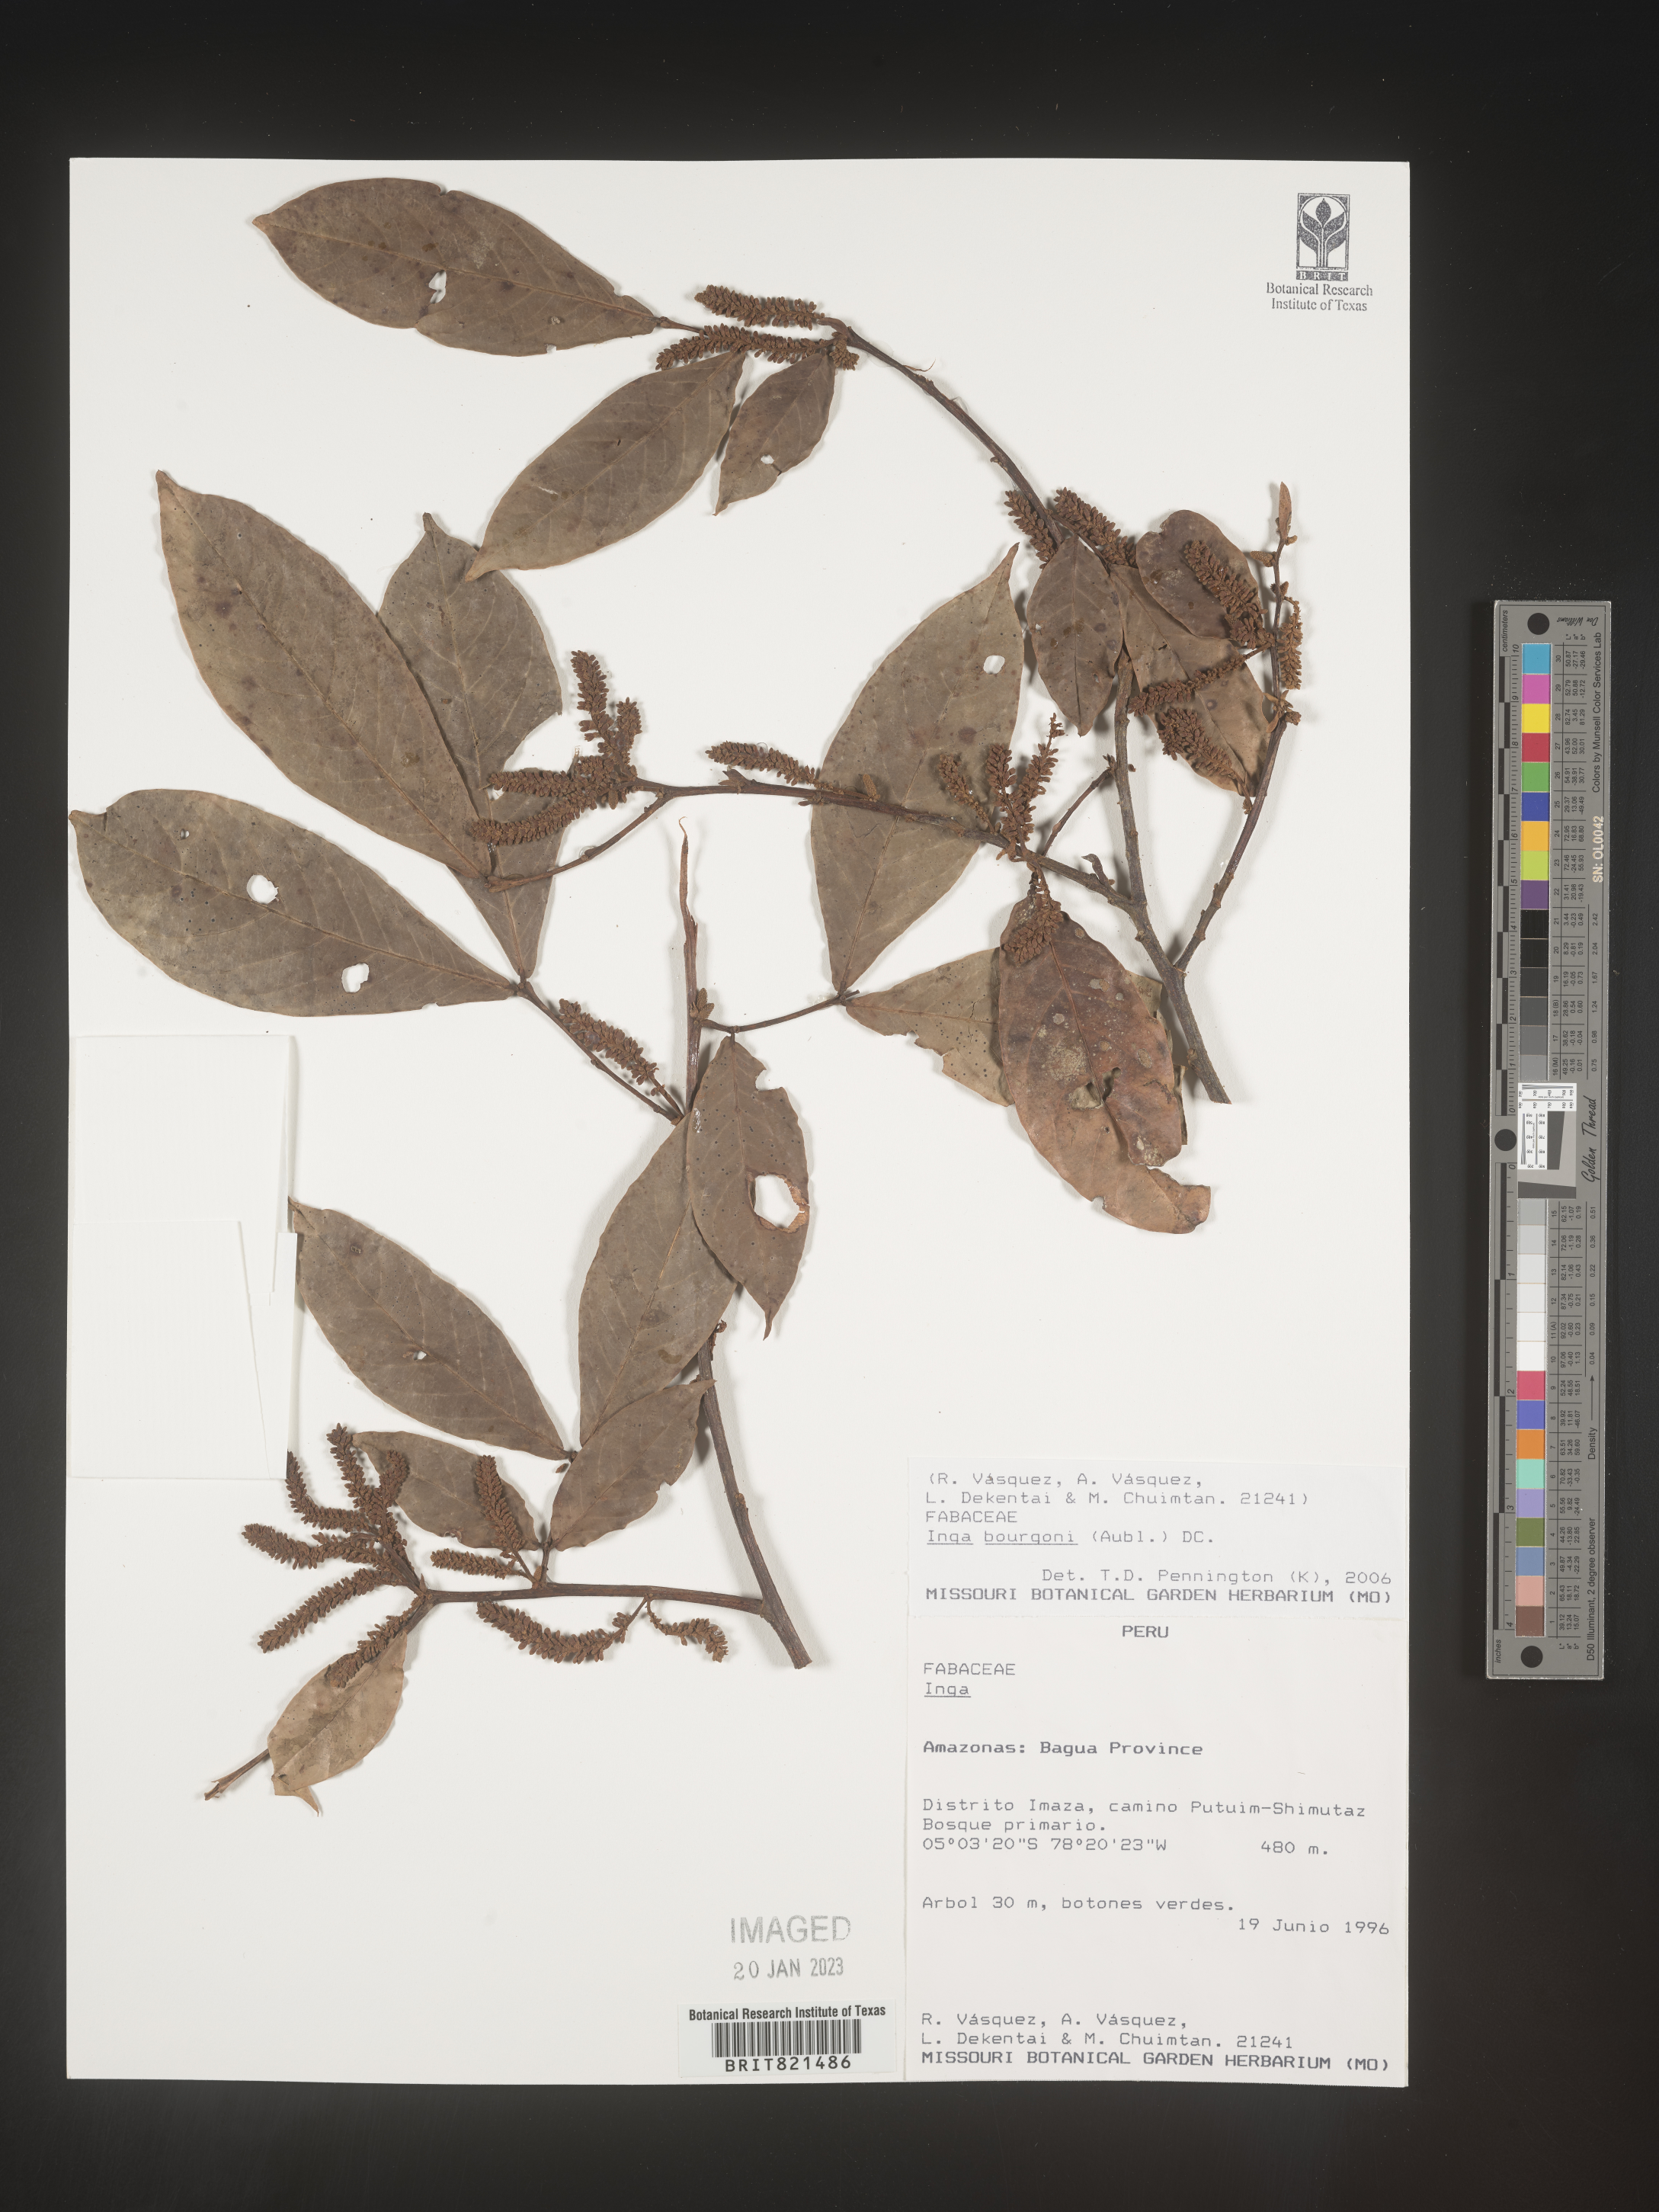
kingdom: Plantae
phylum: Tracheophyta
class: Magnoliopsida
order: Fabales
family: Fabaceae
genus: Inga
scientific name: Inga
